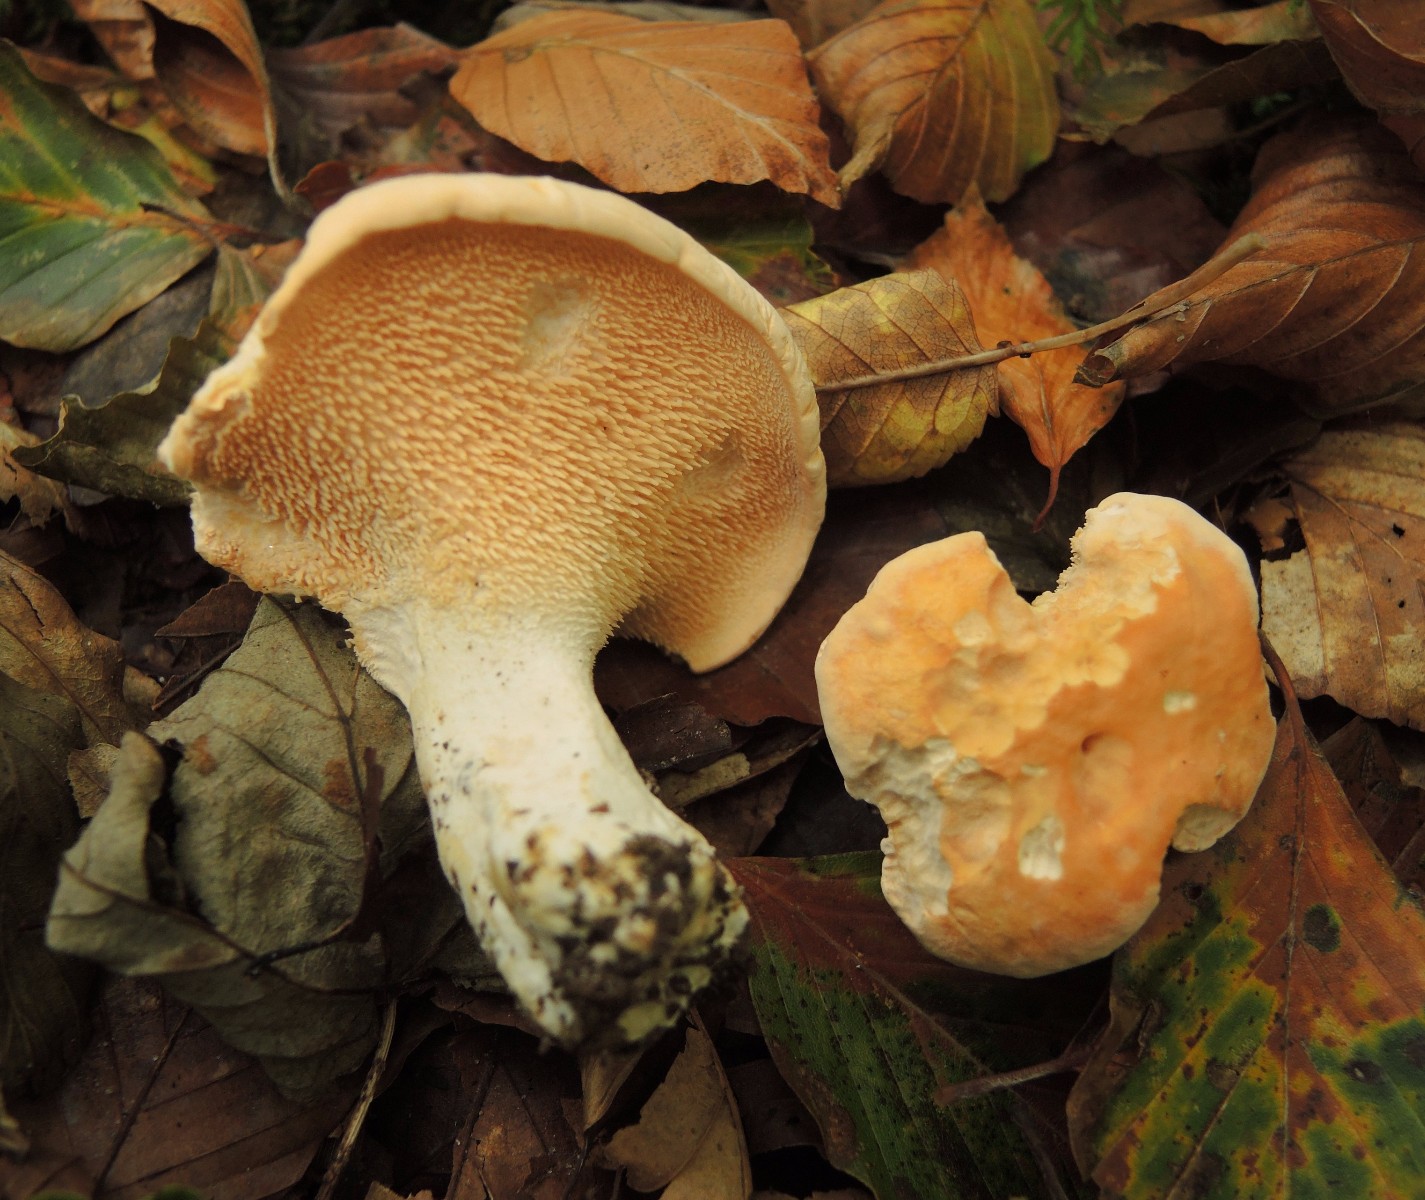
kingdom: Fungi
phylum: Basidiomycota
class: Agaricomycetes
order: Cantharellales
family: Hydnaceae
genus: Hydnum
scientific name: Hydnum slovenicum
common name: slovensk pigsvamp
